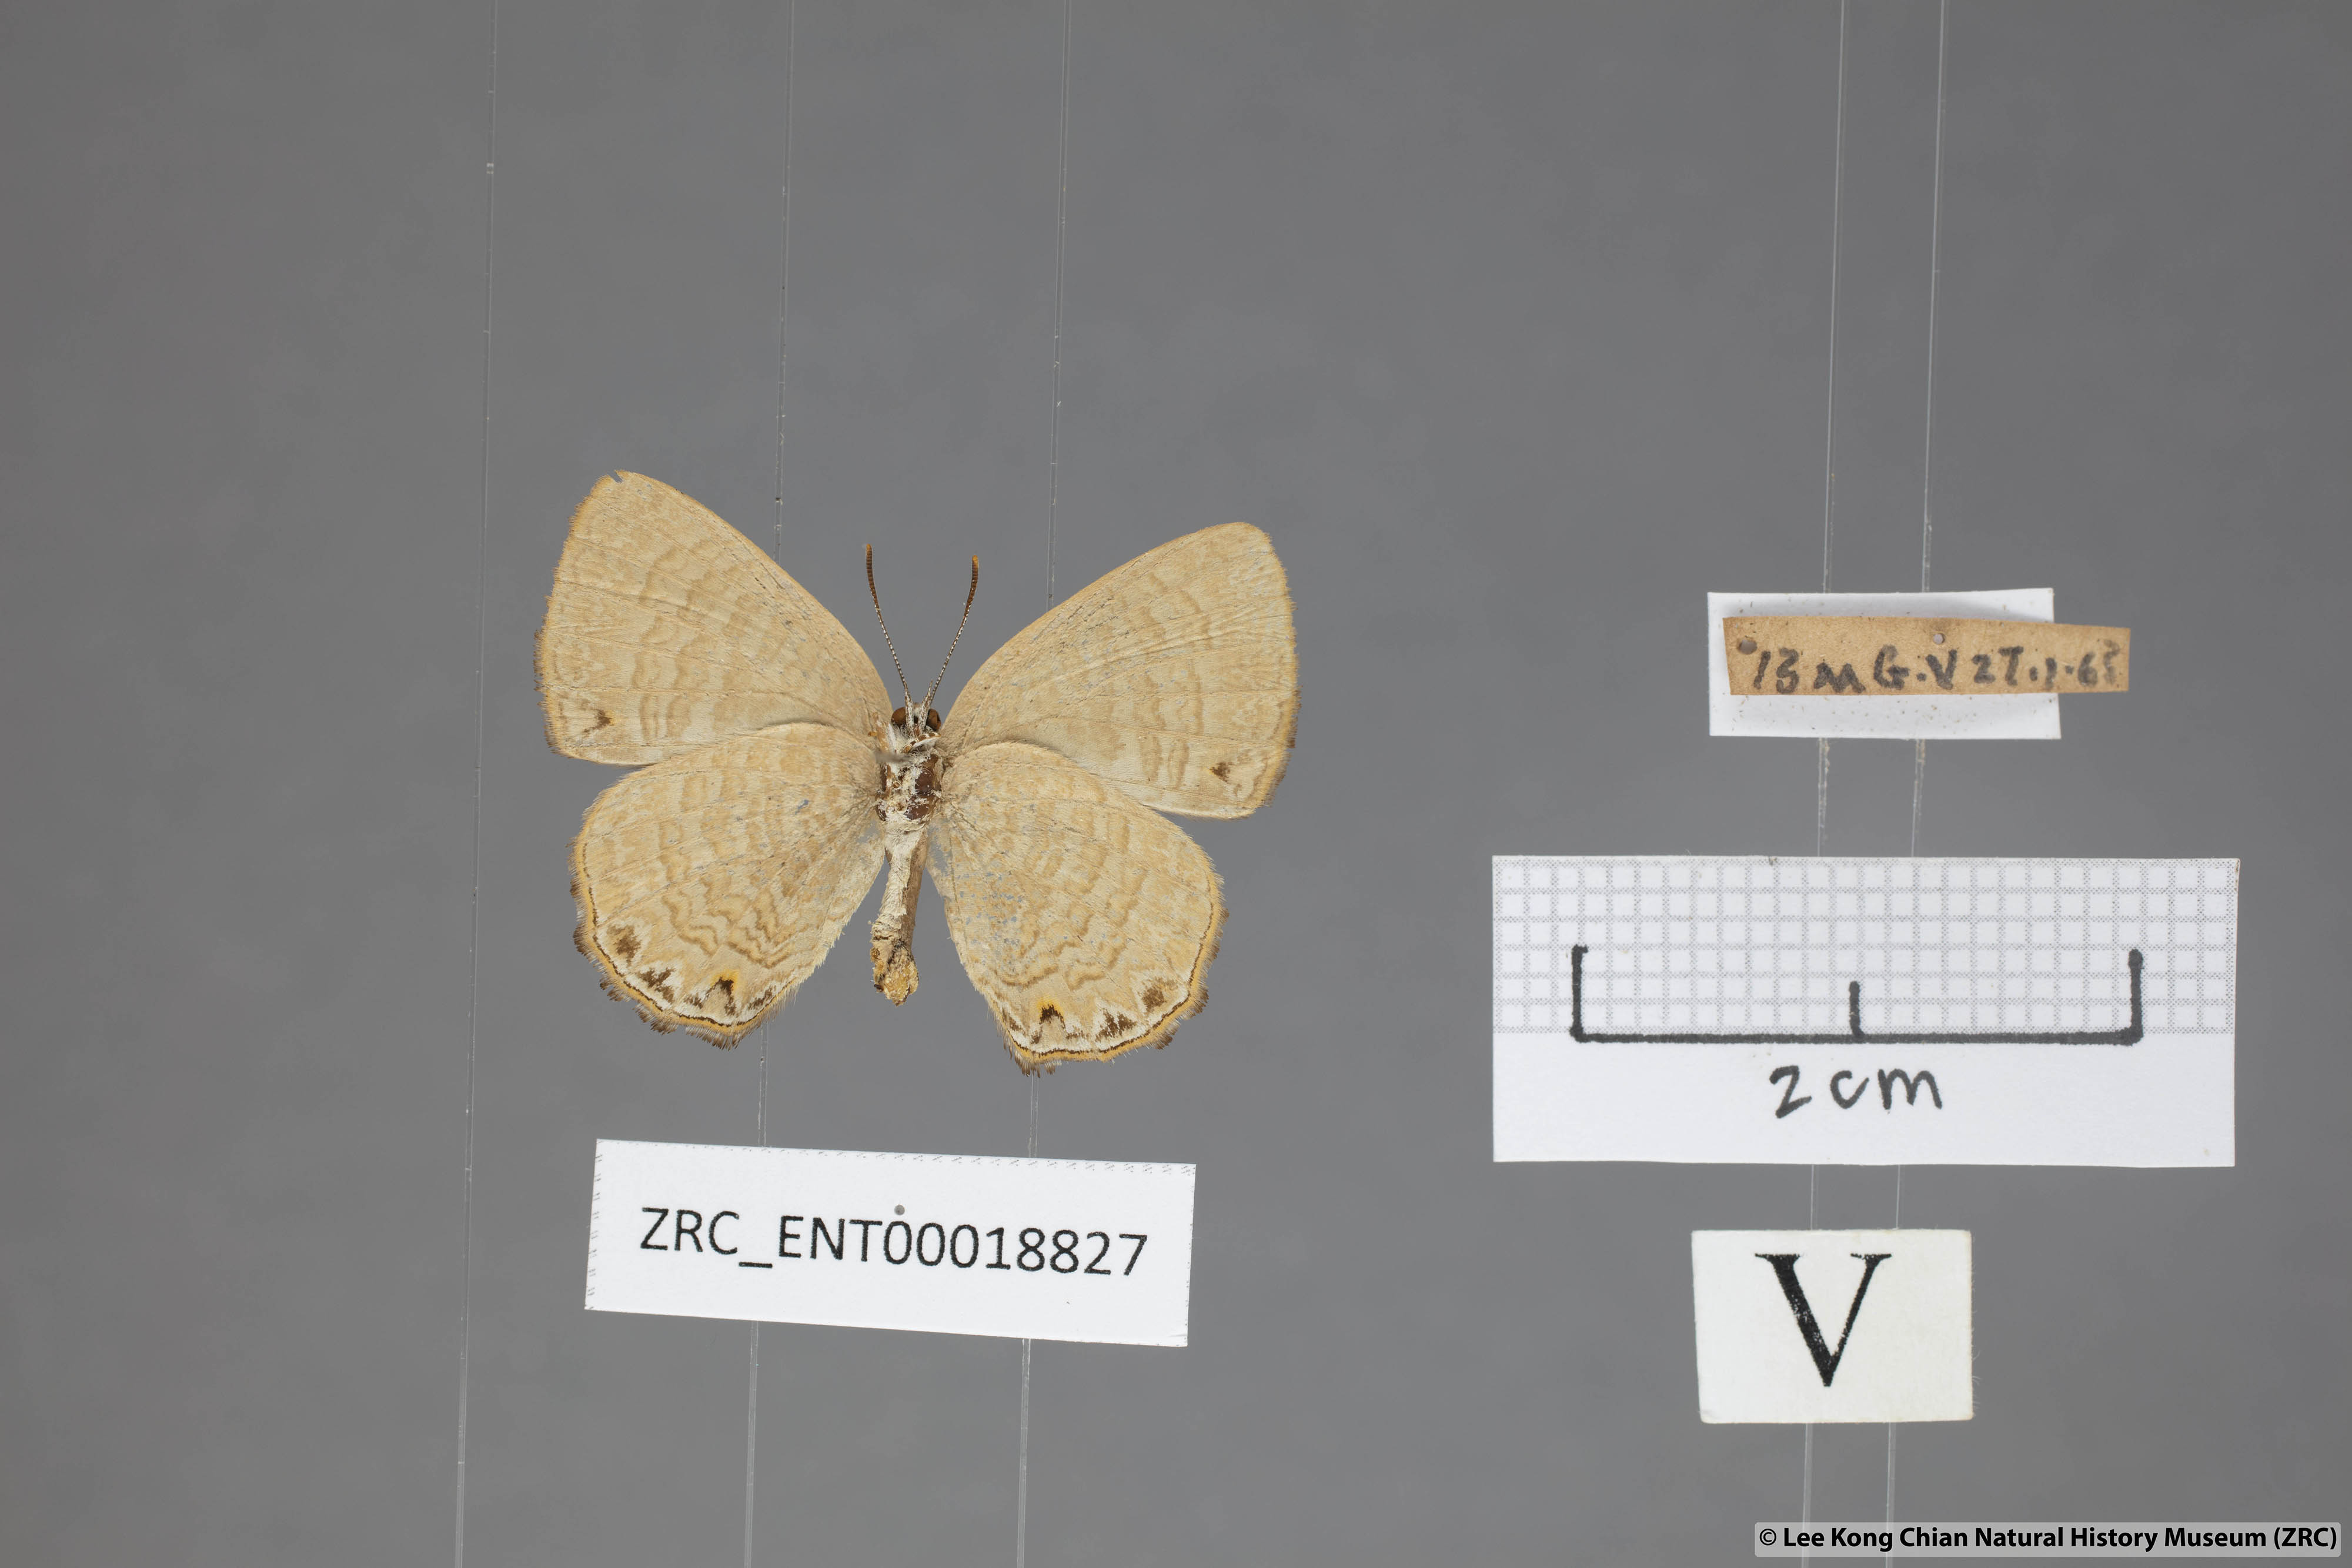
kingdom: Animalia
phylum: Arthropoda
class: Insecta
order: Lepidoptera
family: Lycaenidae
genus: Poritia
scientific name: Poritia philota
